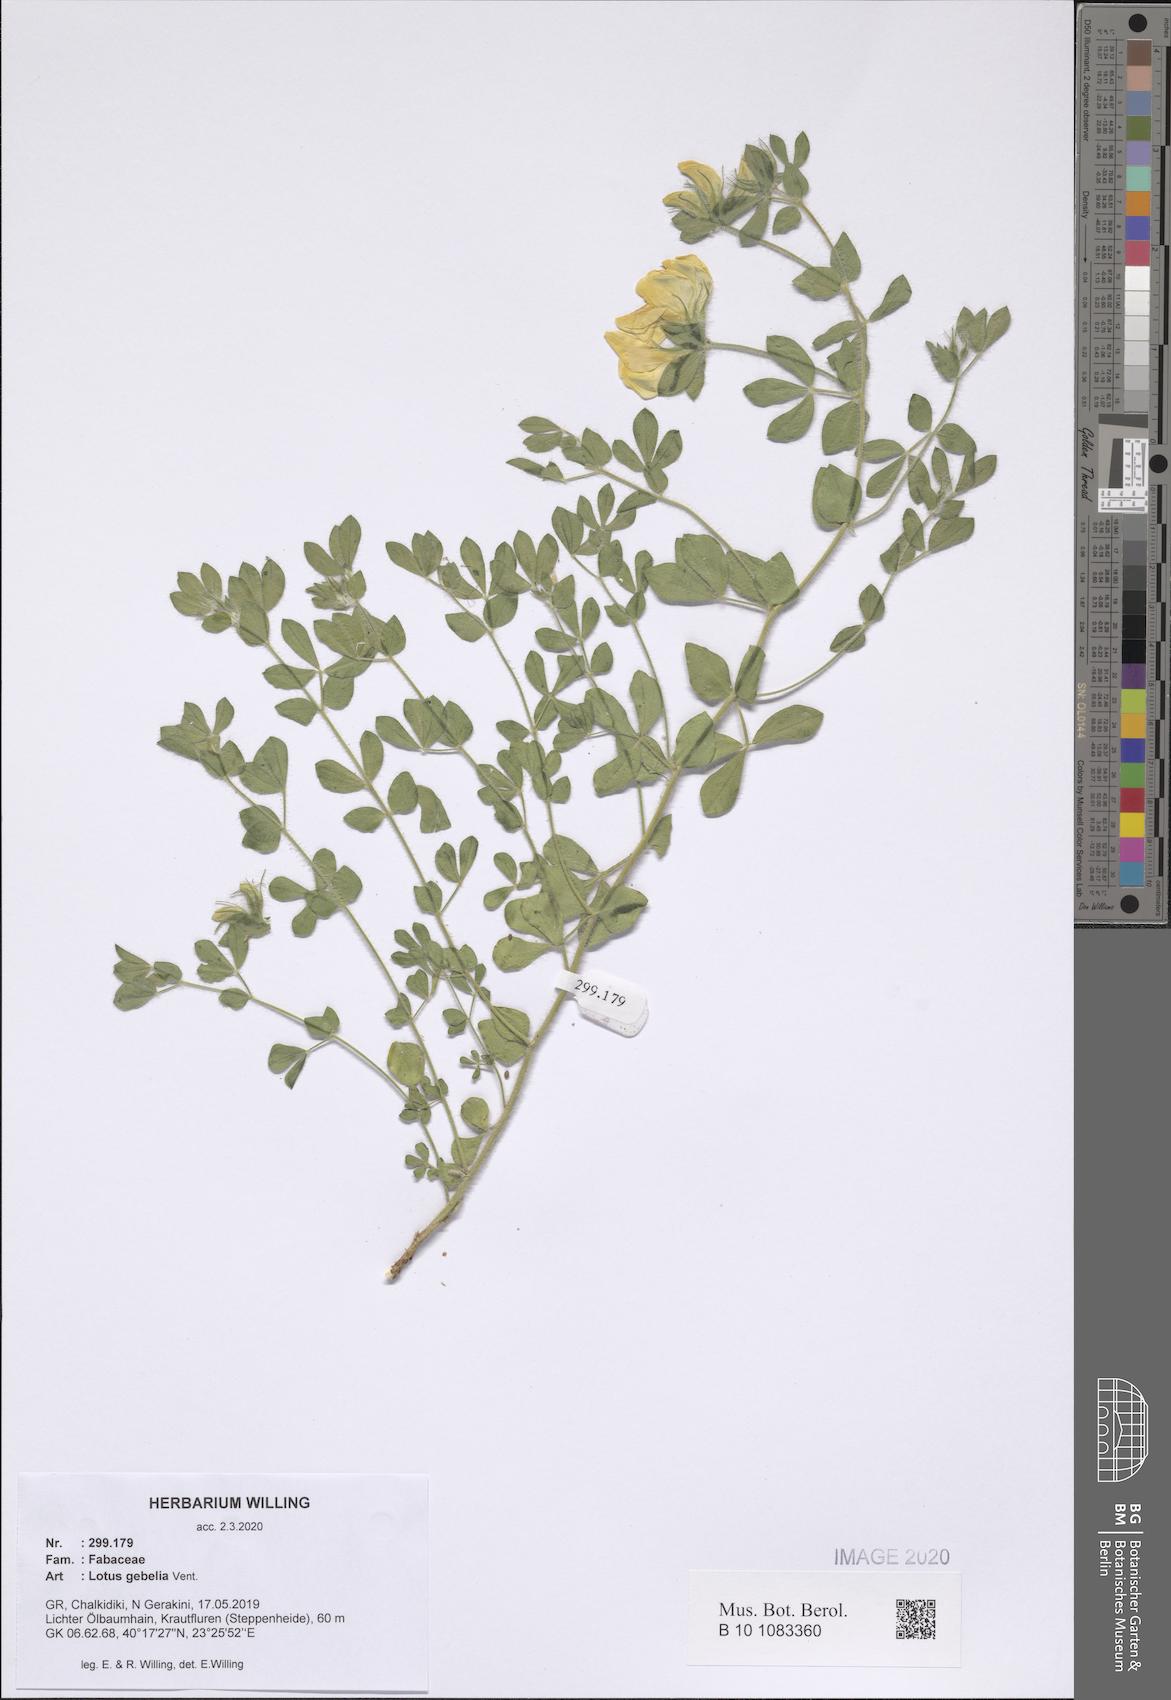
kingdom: Plantae
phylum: Tracheophyta
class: Magnoliopsida
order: Fabales
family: Fabaceae
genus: Lotus
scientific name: Lotus gebelia
